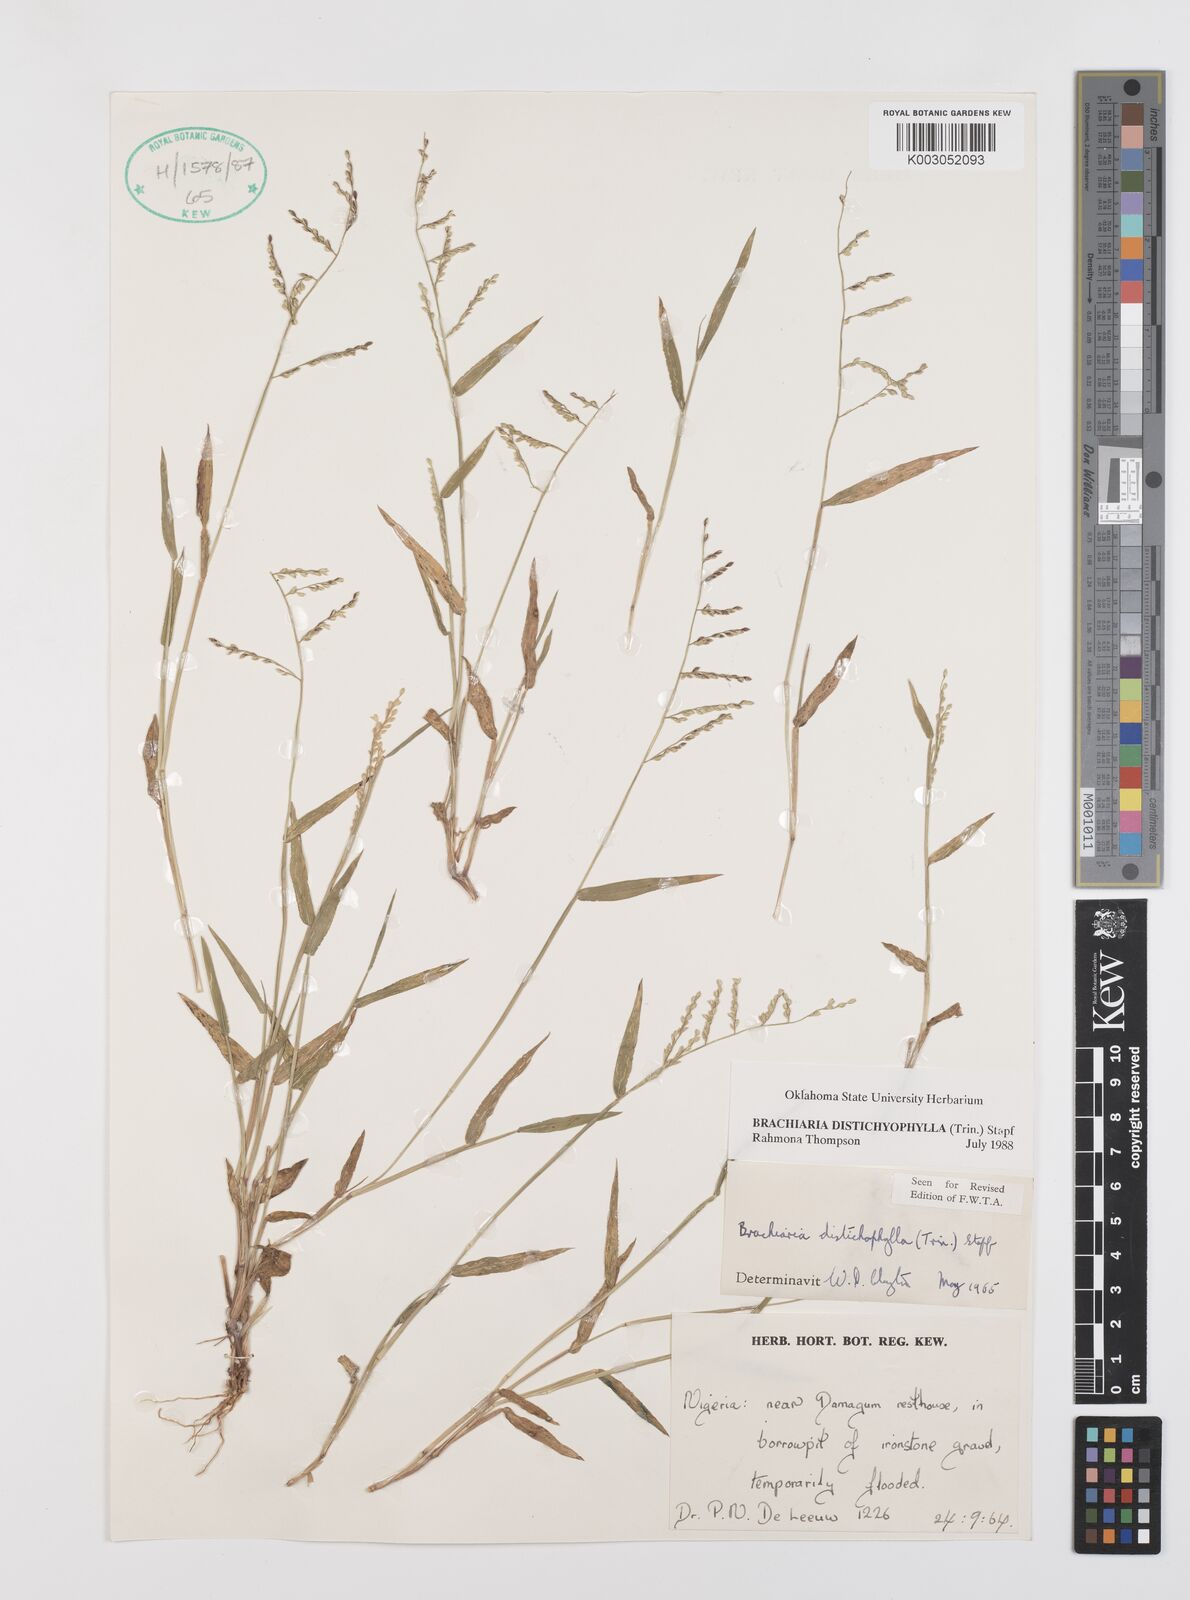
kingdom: Plantae
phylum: Tracheophyta
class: Liliopsida
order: Poales
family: Poaceae
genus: Urochloa
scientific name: Urochloa villosa
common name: Hairy signalgrass
